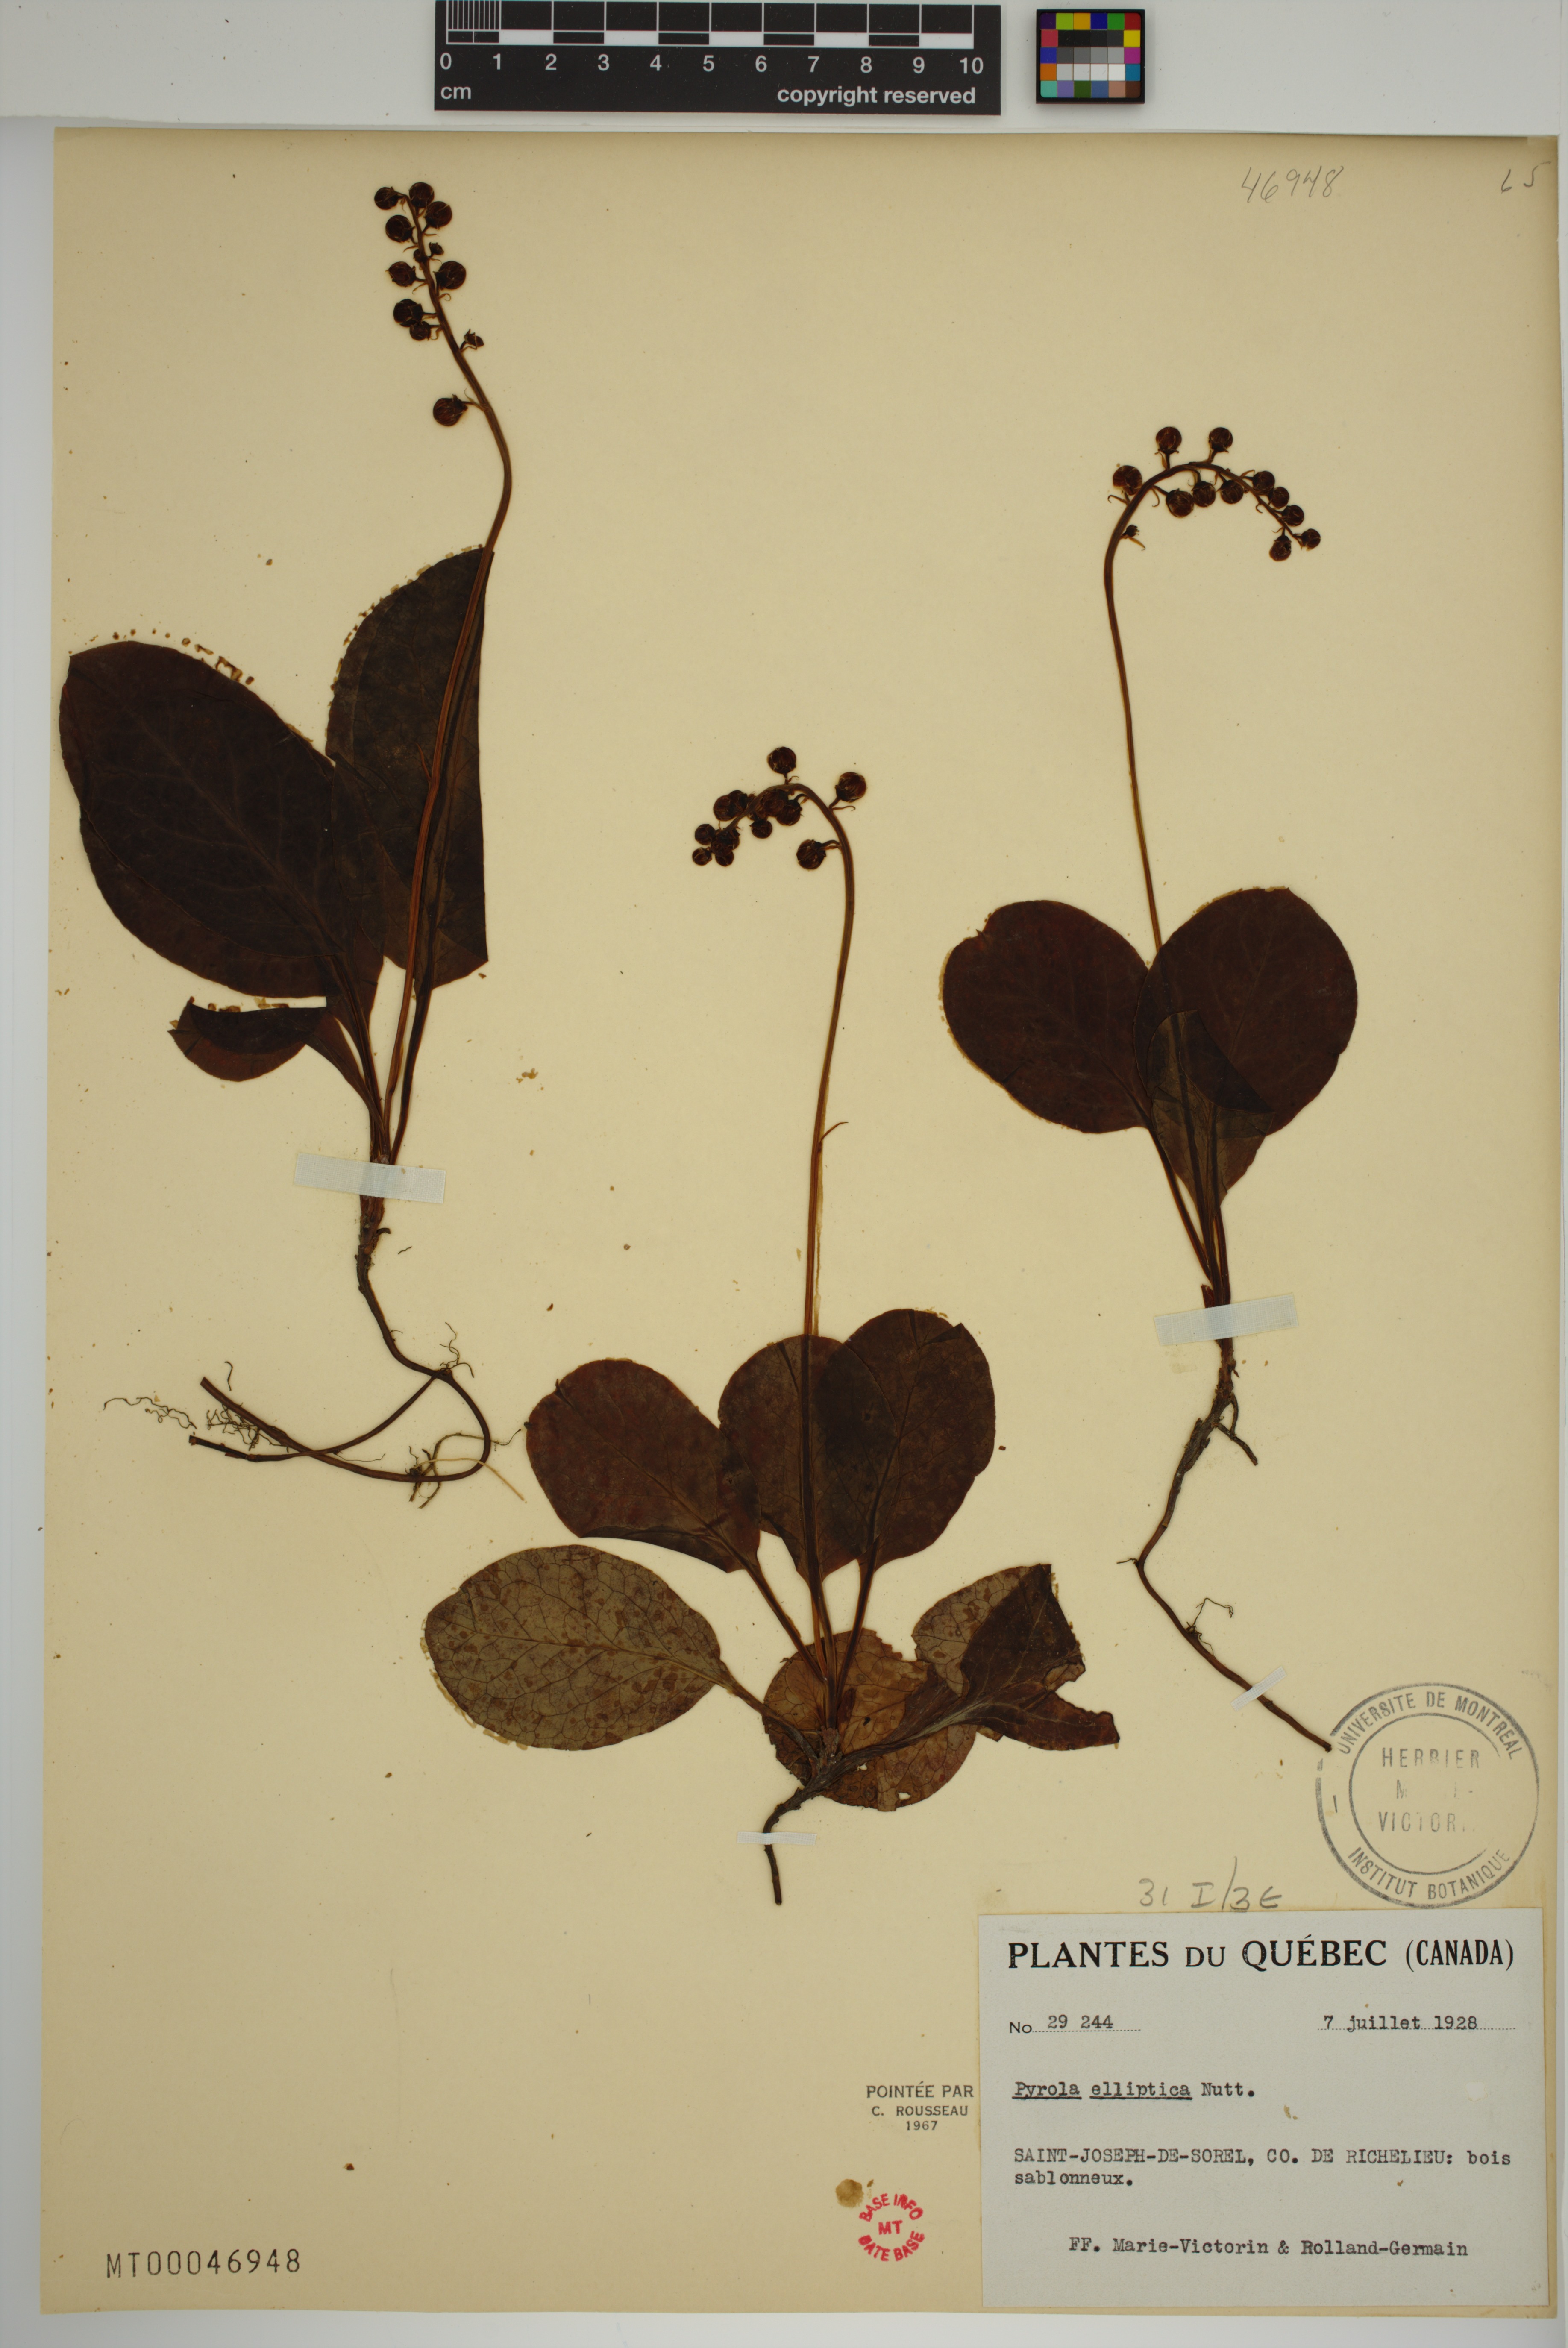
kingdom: Plantae
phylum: Tracheophyta
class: Magnoliopsida
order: Ericales
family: Ericaceae
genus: Pyrola
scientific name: Pyrola elliptica
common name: Shinleaf
